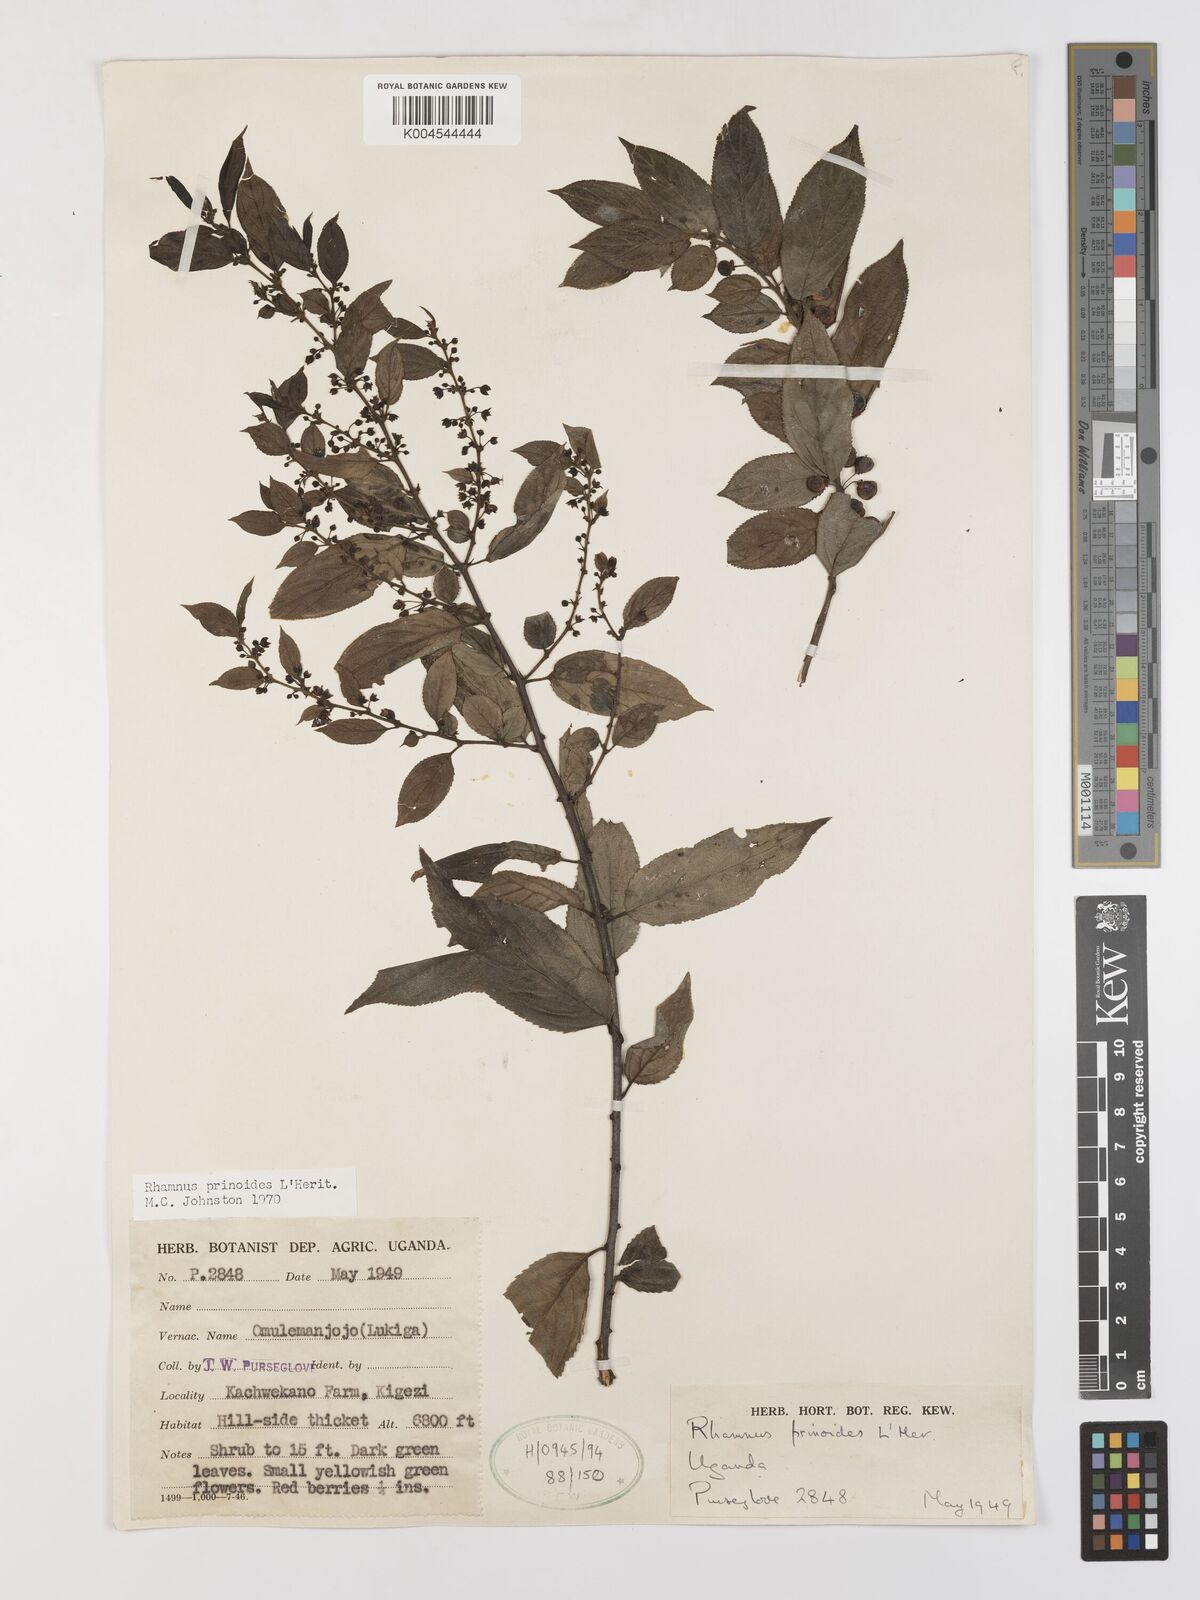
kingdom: Plantae
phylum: Tracheophyta
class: Magnoliopsida
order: Rosales
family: Rhamnaceae
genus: Rhamnus
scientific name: Rhamnus prinoides
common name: Dogwood
